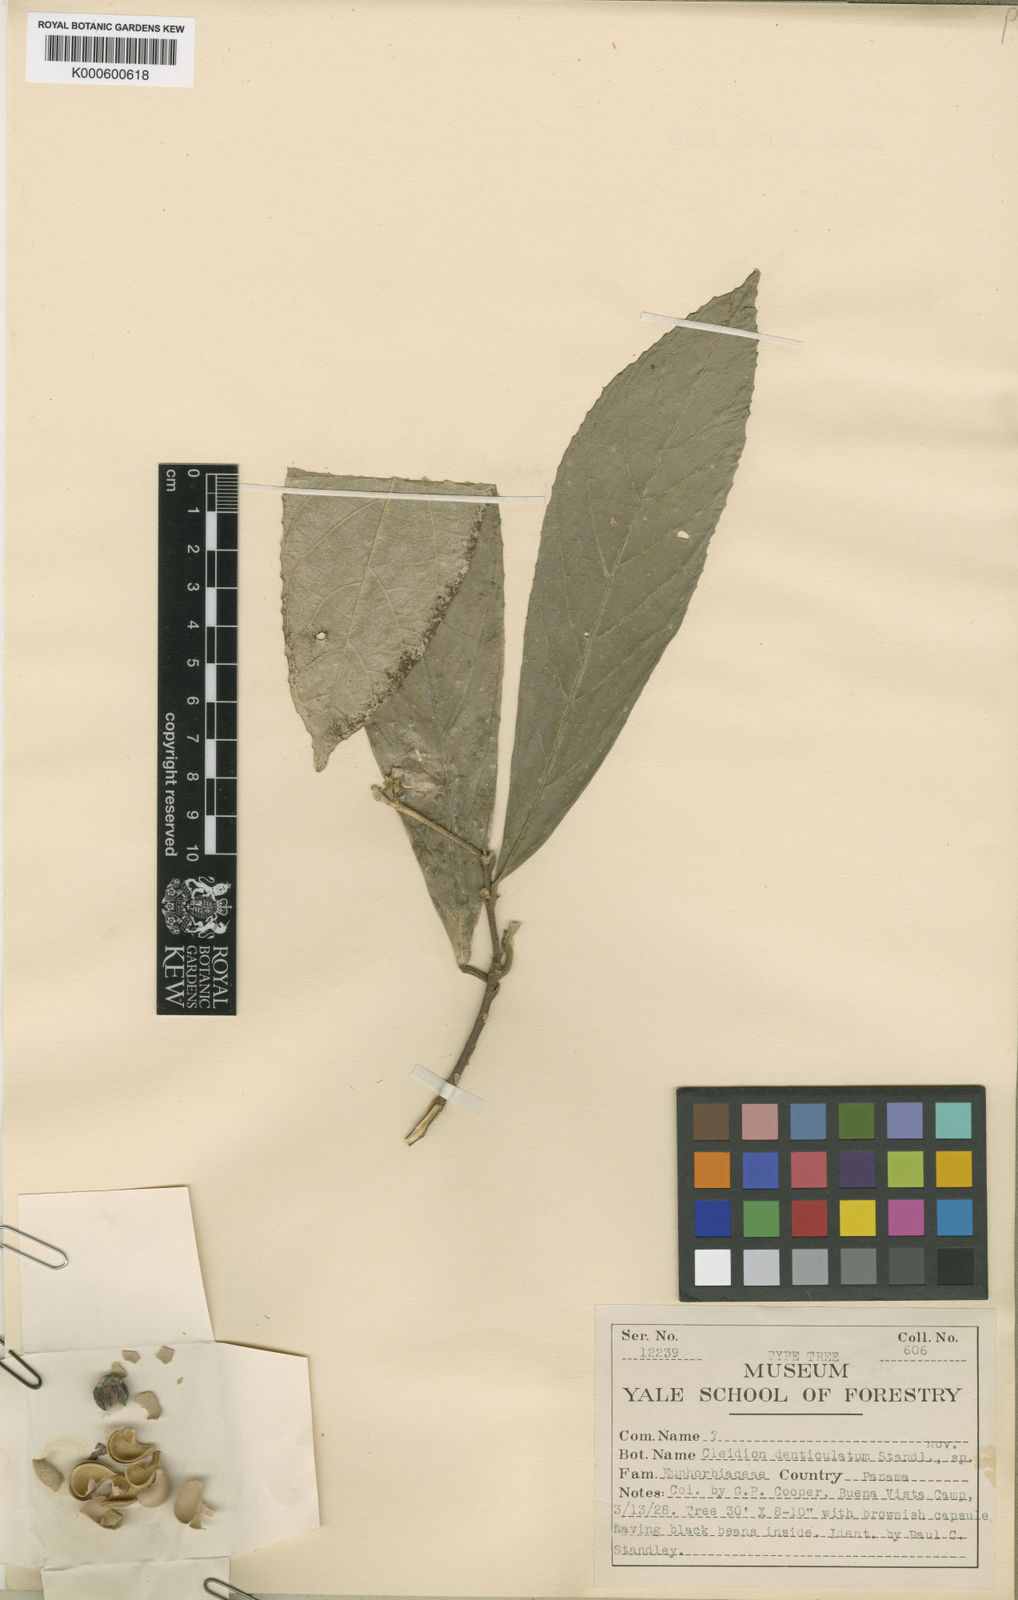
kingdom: Plantae
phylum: Tracheophyta
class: Magnoliopsida
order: Malpighiales
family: Euphorbiaceae
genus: Adenophaedra
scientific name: Adenophaedra
